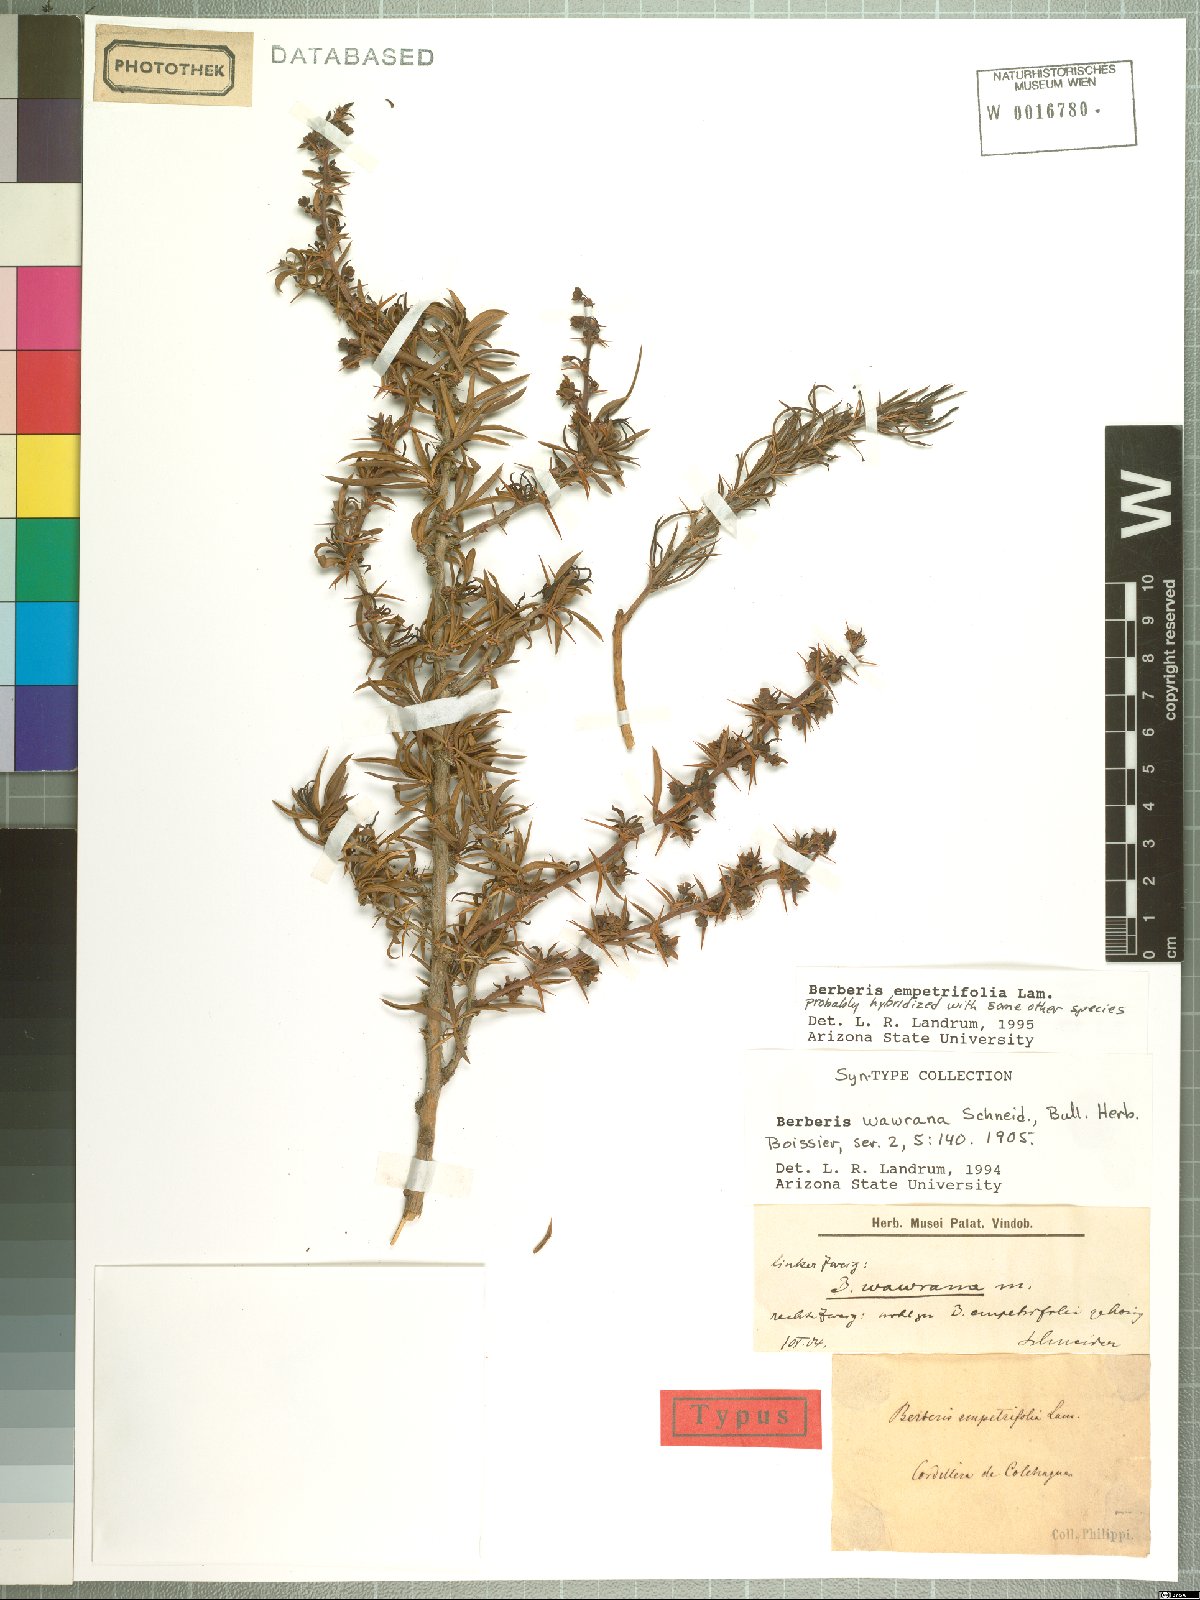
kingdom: Plantae
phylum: Tracheophyta
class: Magnoliopsida
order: Ranunculales
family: Berberidaceae
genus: Berberis
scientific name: Berberis empetrifolia
